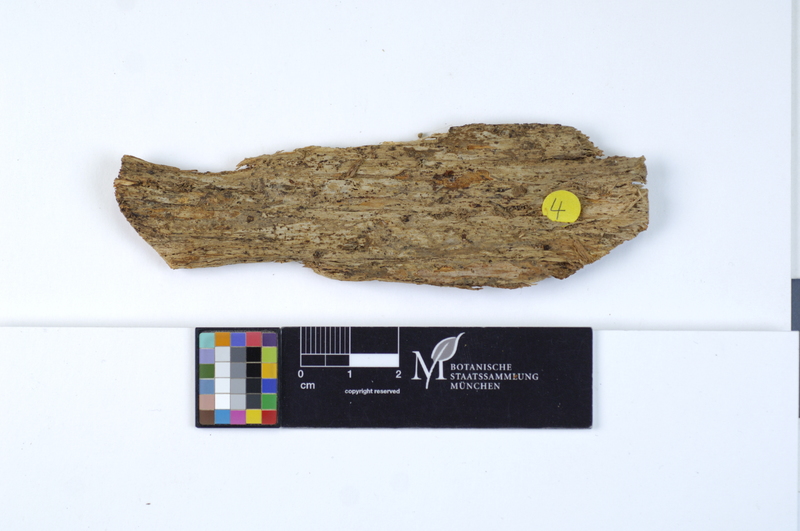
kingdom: Fungi
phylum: Basidiomycota
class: Agaricomycetes
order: Hymenochaetales
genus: Kurtia
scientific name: Kurtia argillacea
